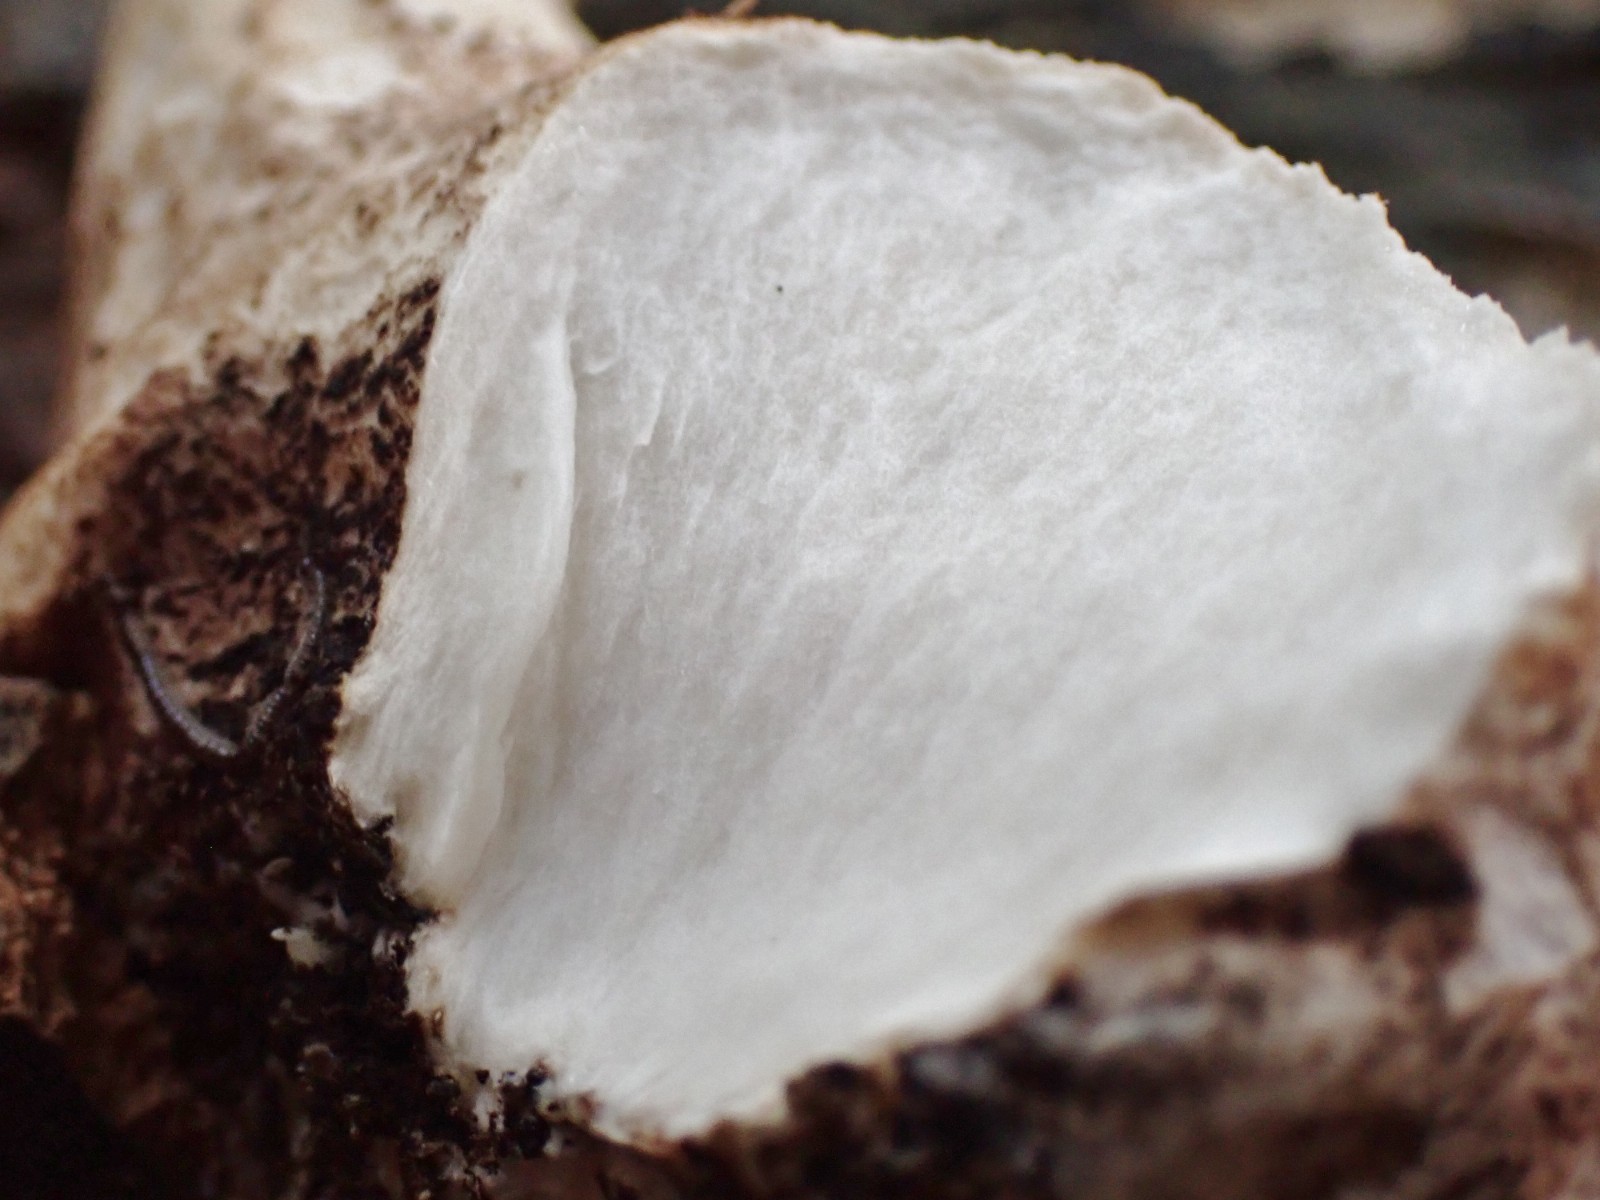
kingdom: Fungi
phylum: Basidiomycota
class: Agaricomycetes
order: Polyporales
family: Polyporaceae
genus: Cerioporus
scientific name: Cerioporus squamosus
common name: skællet stilkporesvamp
